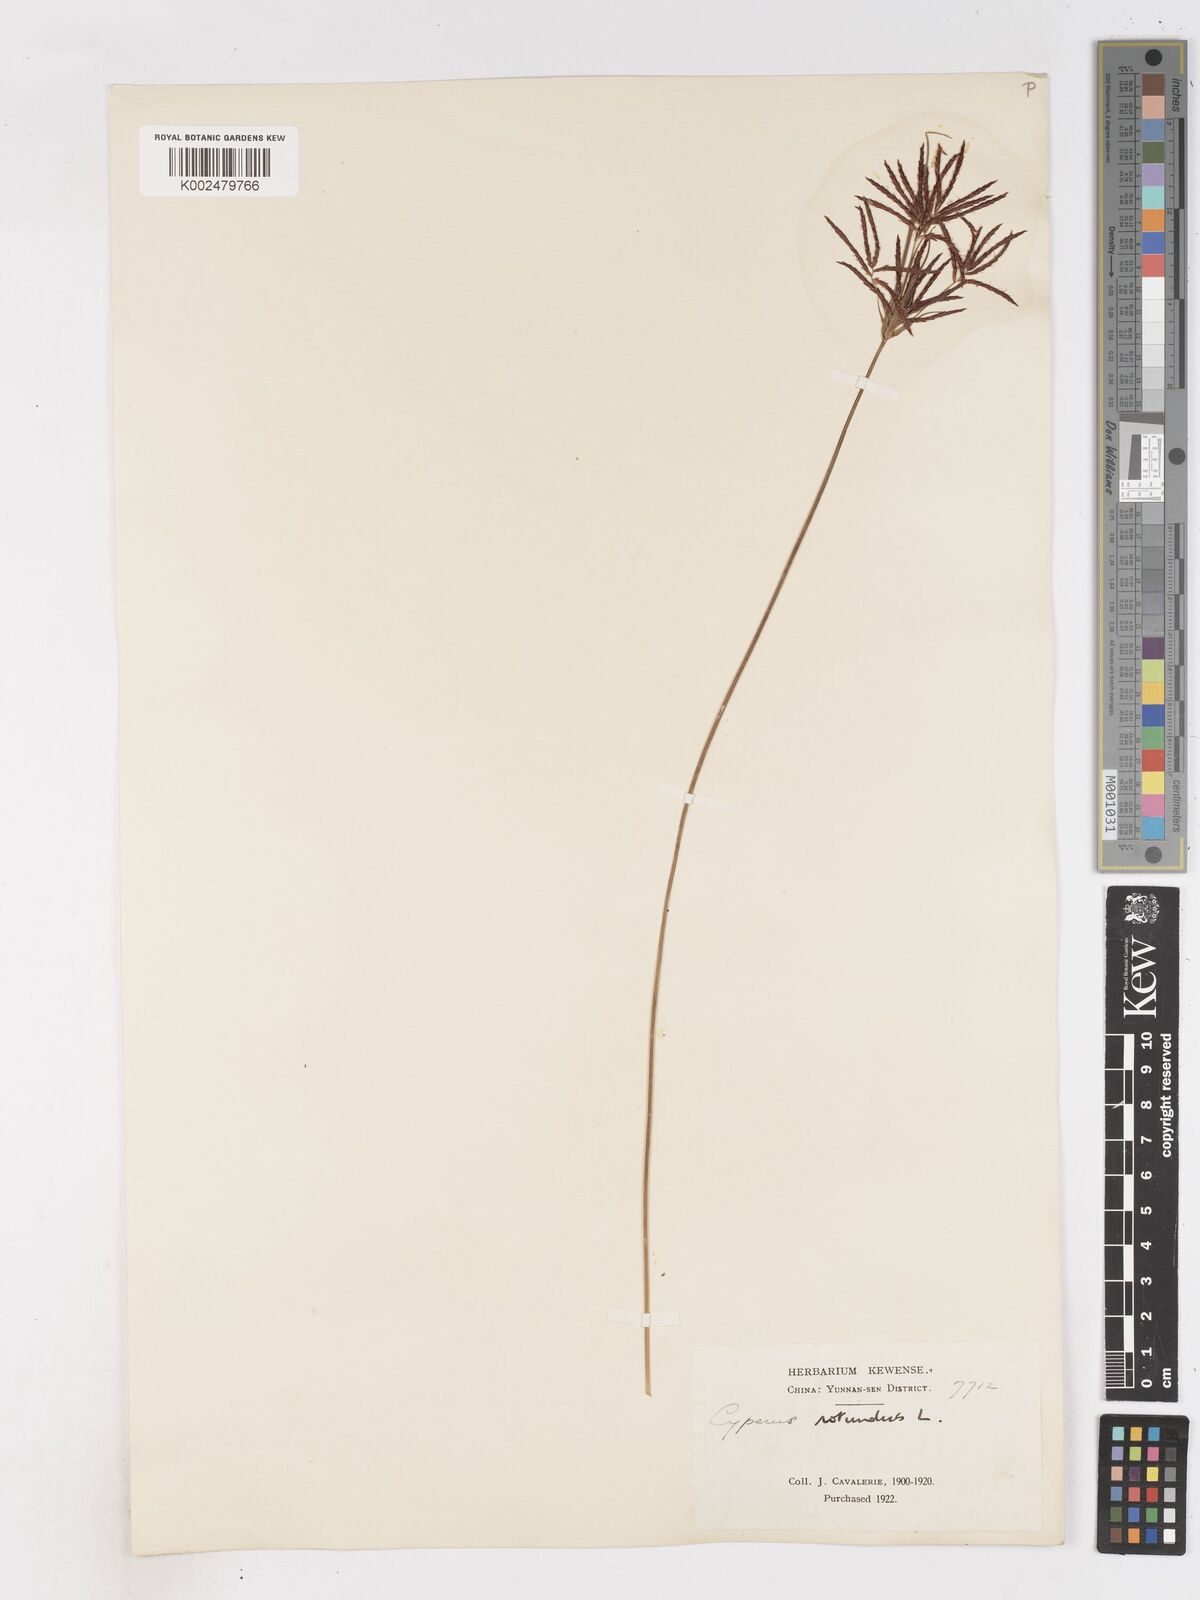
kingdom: Plantae
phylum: Tracheophyta
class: Liliopsida
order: Poales
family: Cyperaceae
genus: Cyperus
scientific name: Cyperus rotundus
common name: Nutgrass
